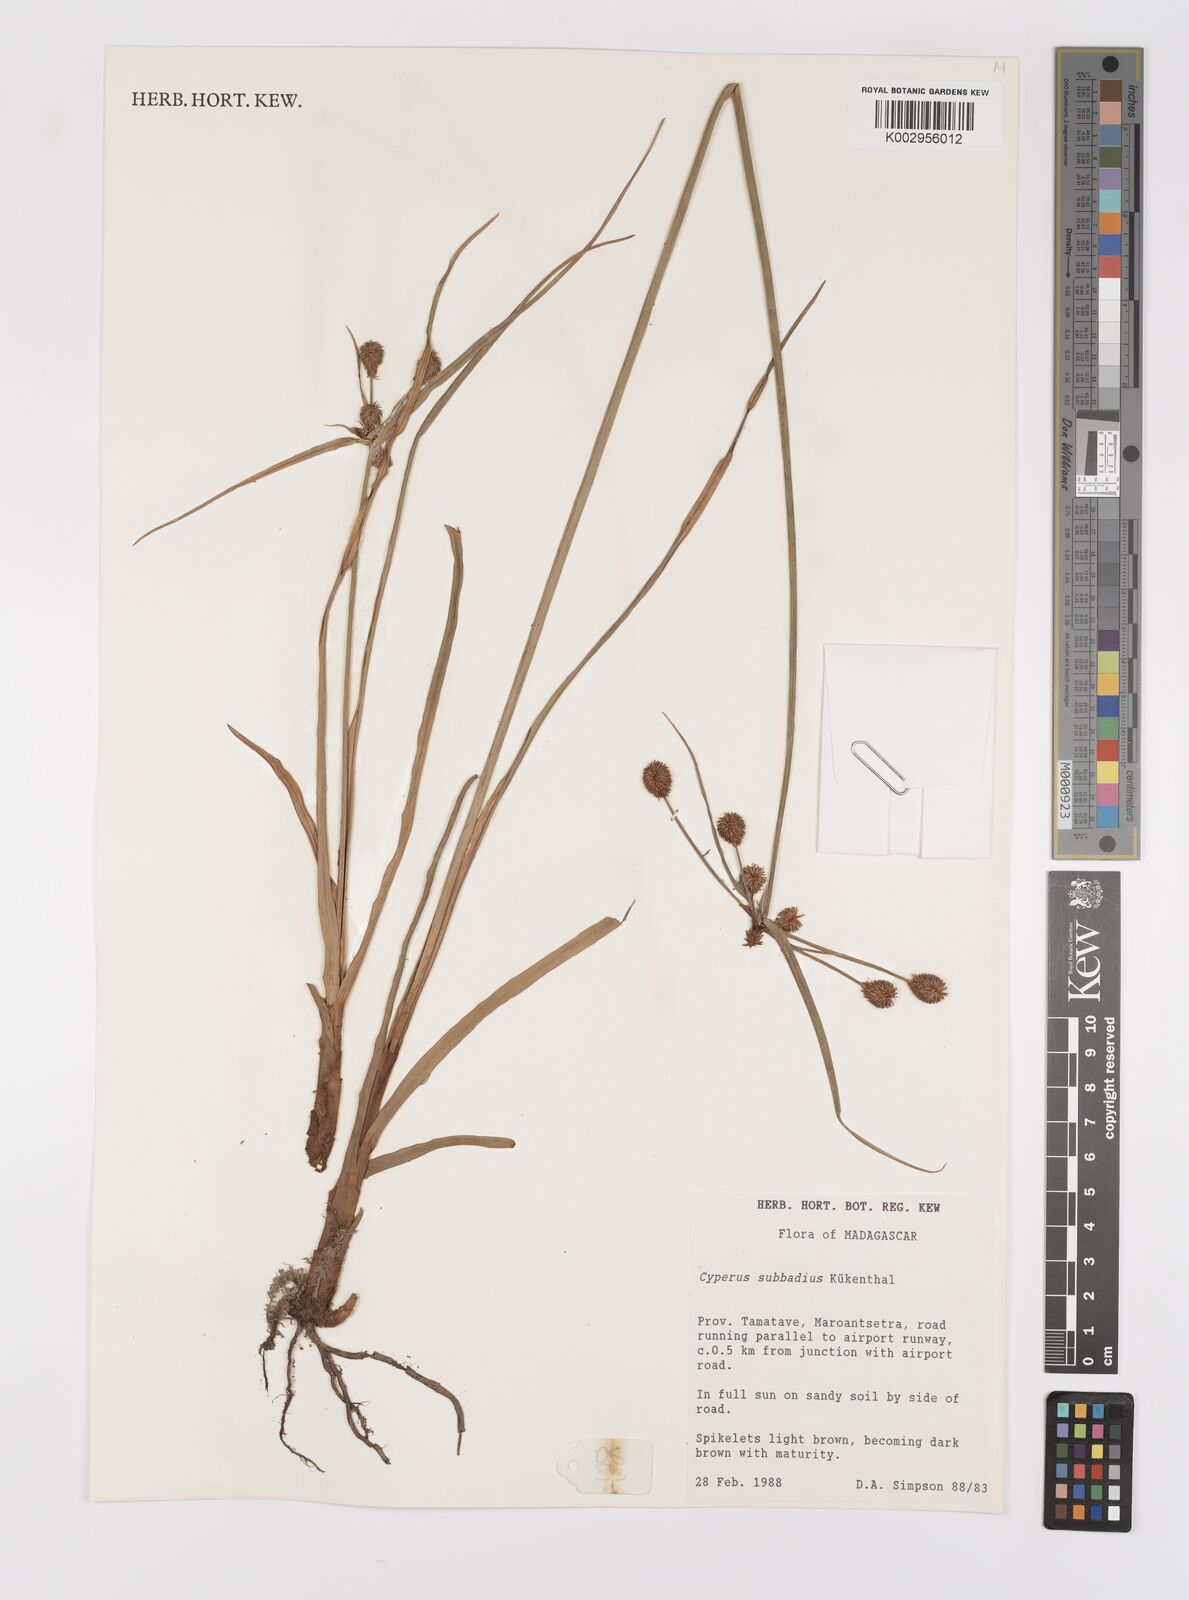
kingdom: Plantae
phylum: Tracheophyta
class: Liliopsida
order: Poales
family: Cyperaceae
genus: Cyperus
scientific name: Cyperus subbadius
